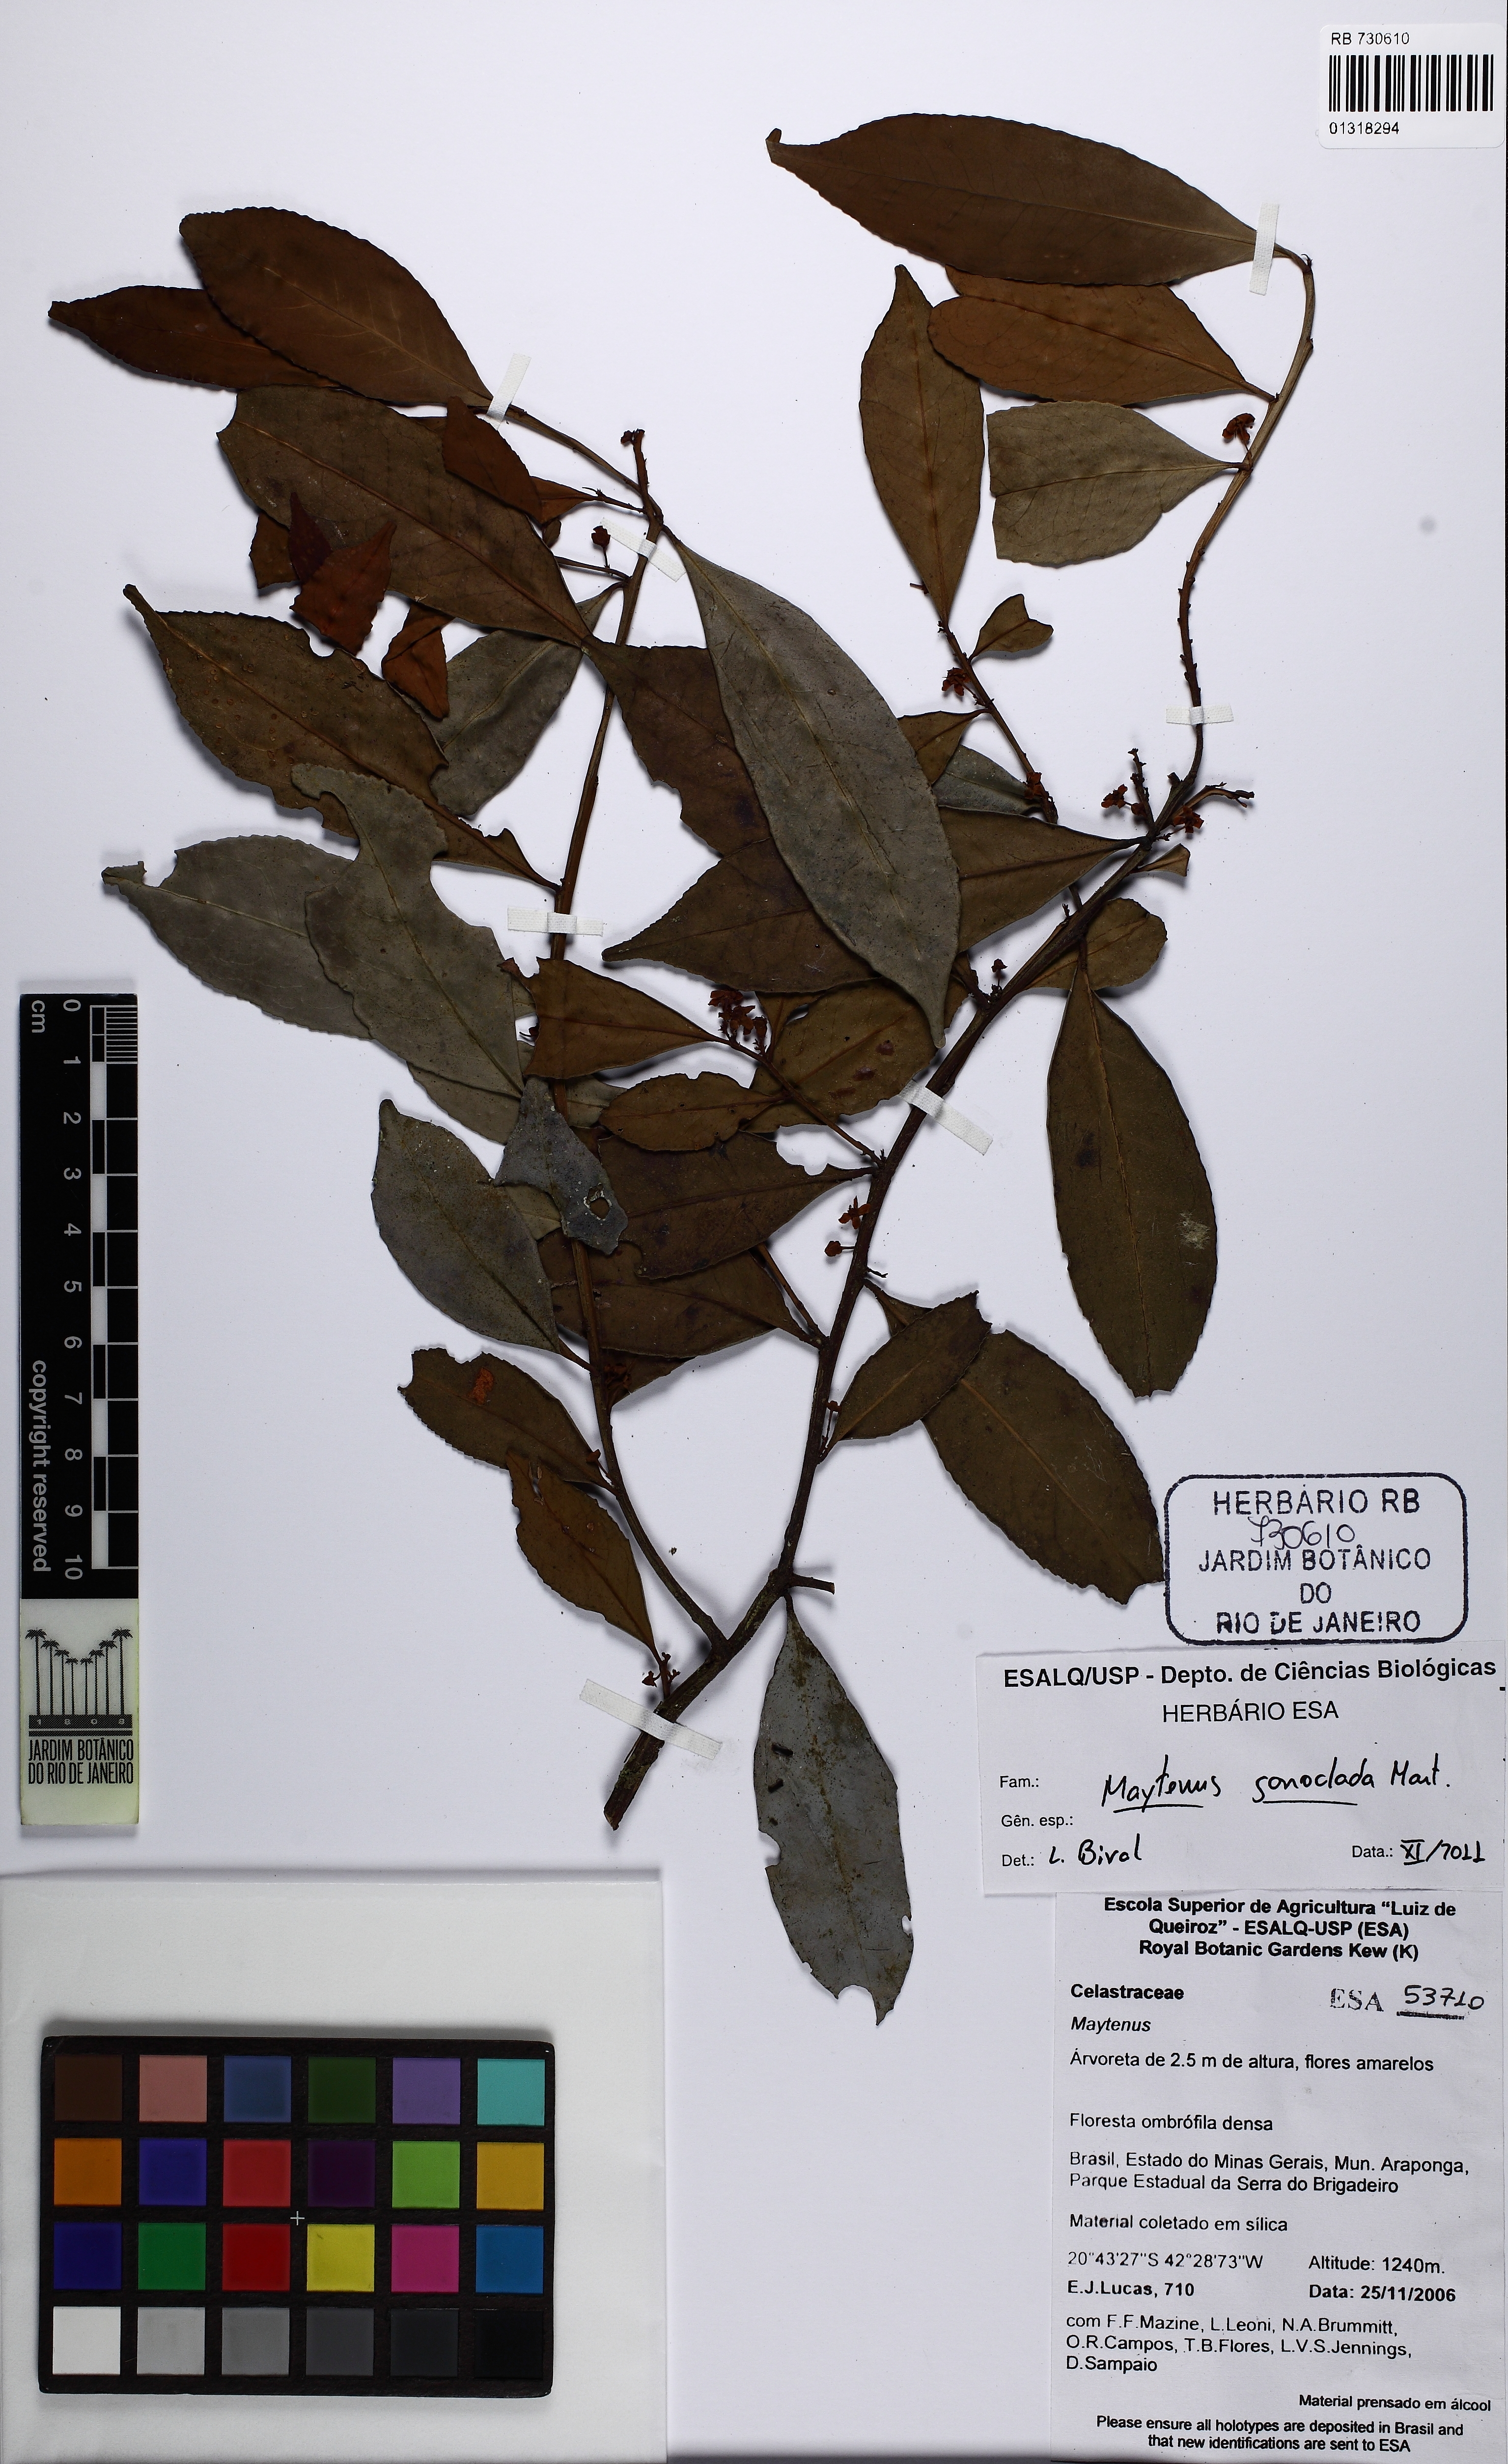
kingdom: Plantae
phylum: Tracheophyta
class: Magnoliopsida
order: Celastrales
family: Celastraceae
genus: Monteverdia
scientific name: Monteverdia gonoclada
